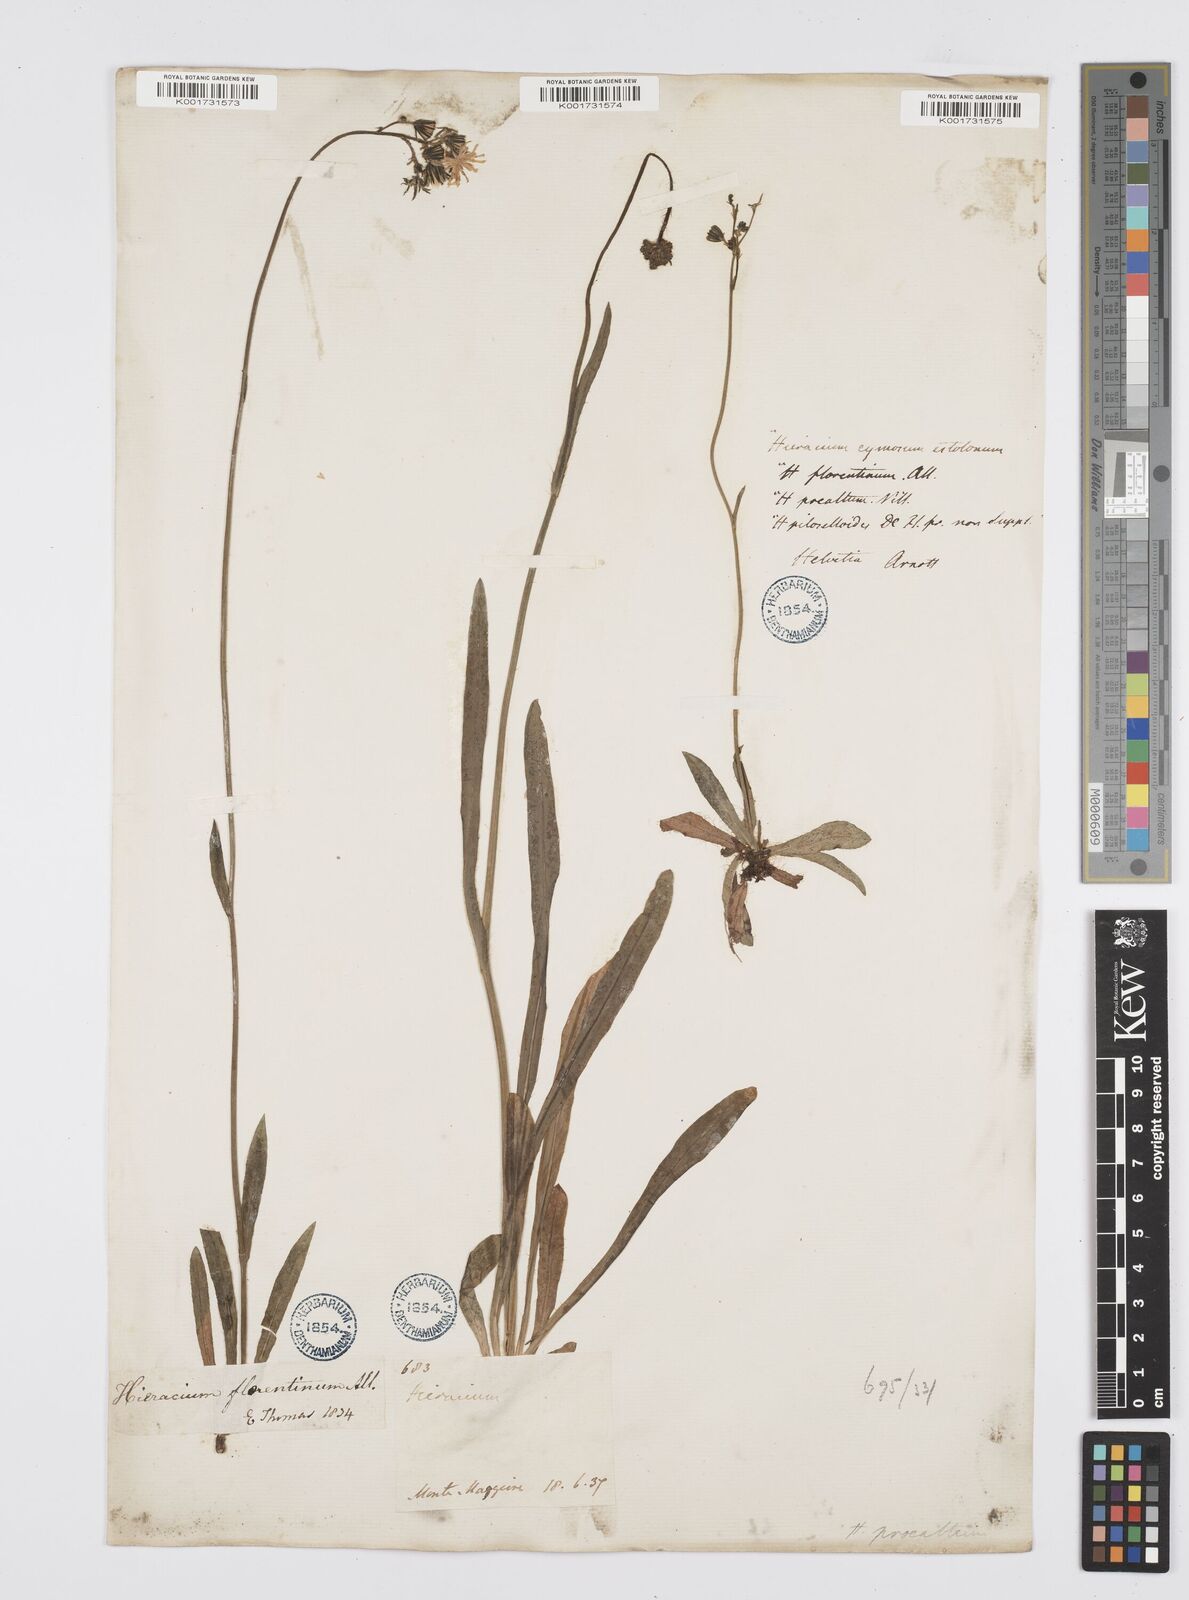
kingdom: Plantae
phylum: Tracheophyta
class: Magnoliopsida
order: Asterales
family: Asteraceae
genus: Pilosella
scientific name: Pilosella piloselloides
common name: Glaucous king-devil
